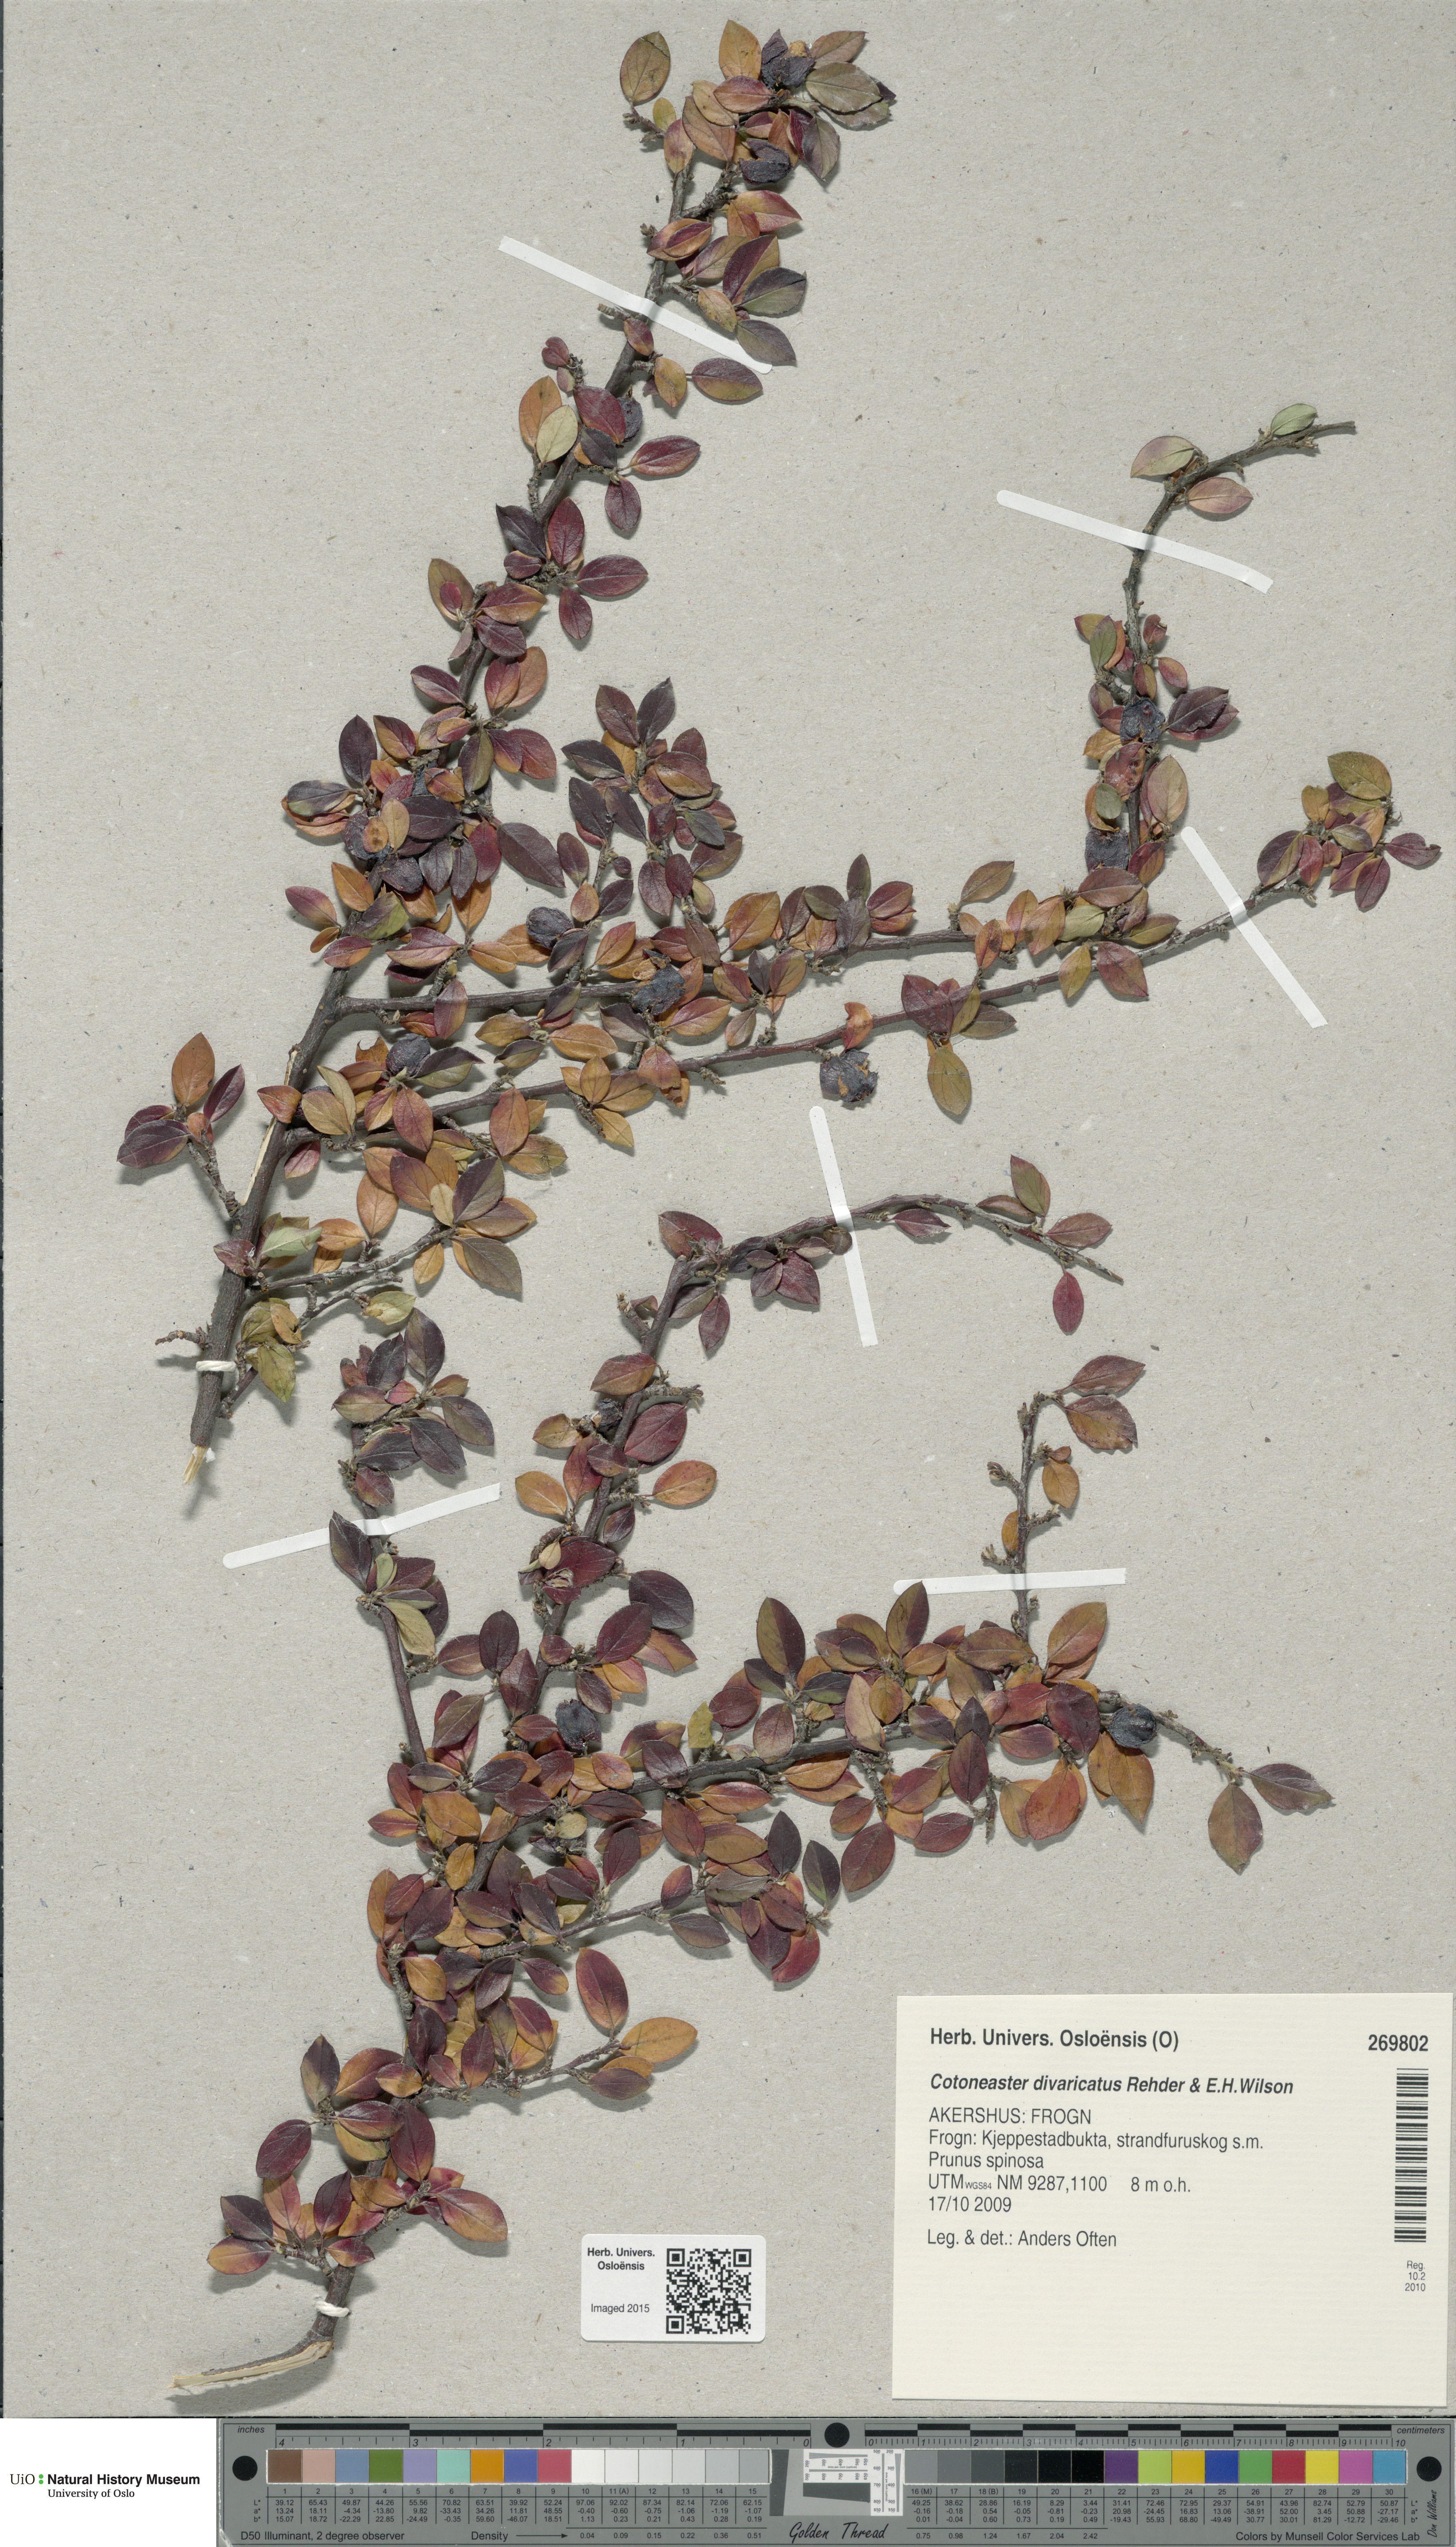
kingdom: Plantae
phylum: Tracheophyta
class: Magnoliopsida
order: Rosales
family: Rosaceae
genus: Cotoneaster
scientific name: Cotoneaster divaricatus
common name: Spreading cotoneaster
